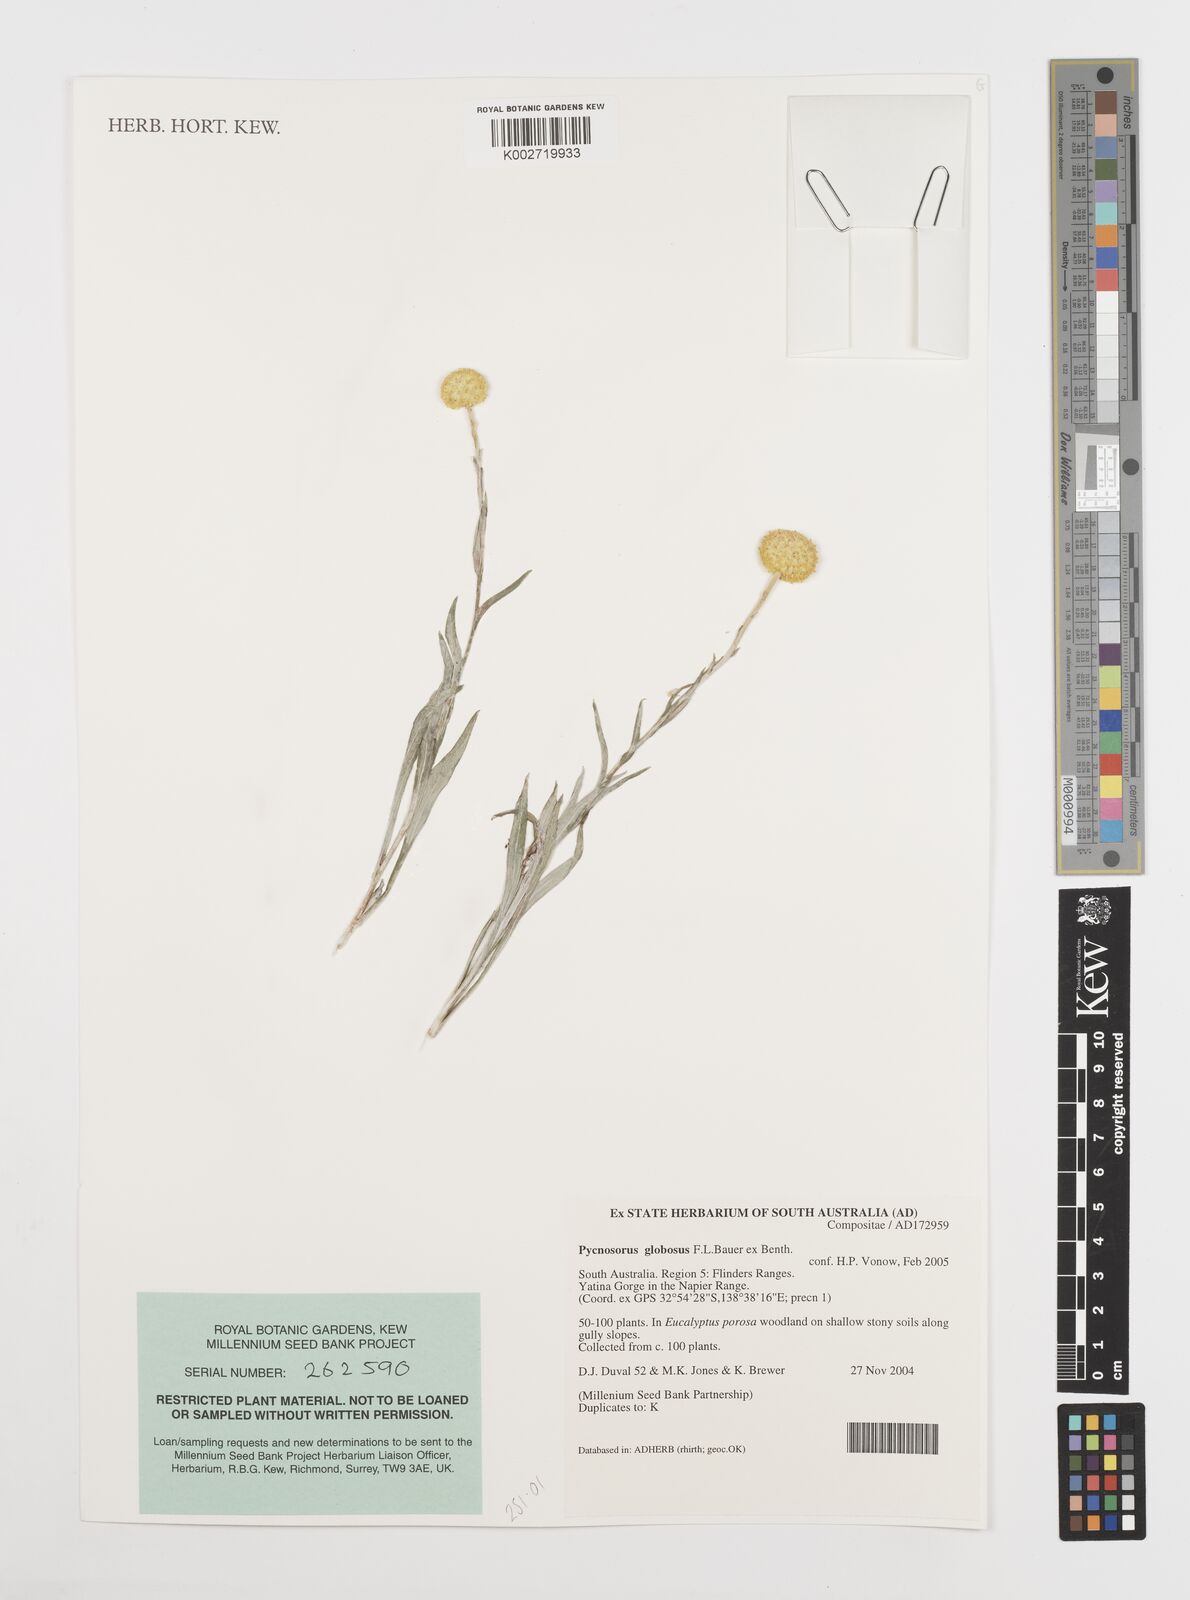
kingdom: Plantae
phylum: Tracheophyta
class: Magnoliopsida
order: Asterales
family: Asteraceae
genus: Pycnosorus
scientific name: Pycnosorus globosus
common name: Drumsticks
